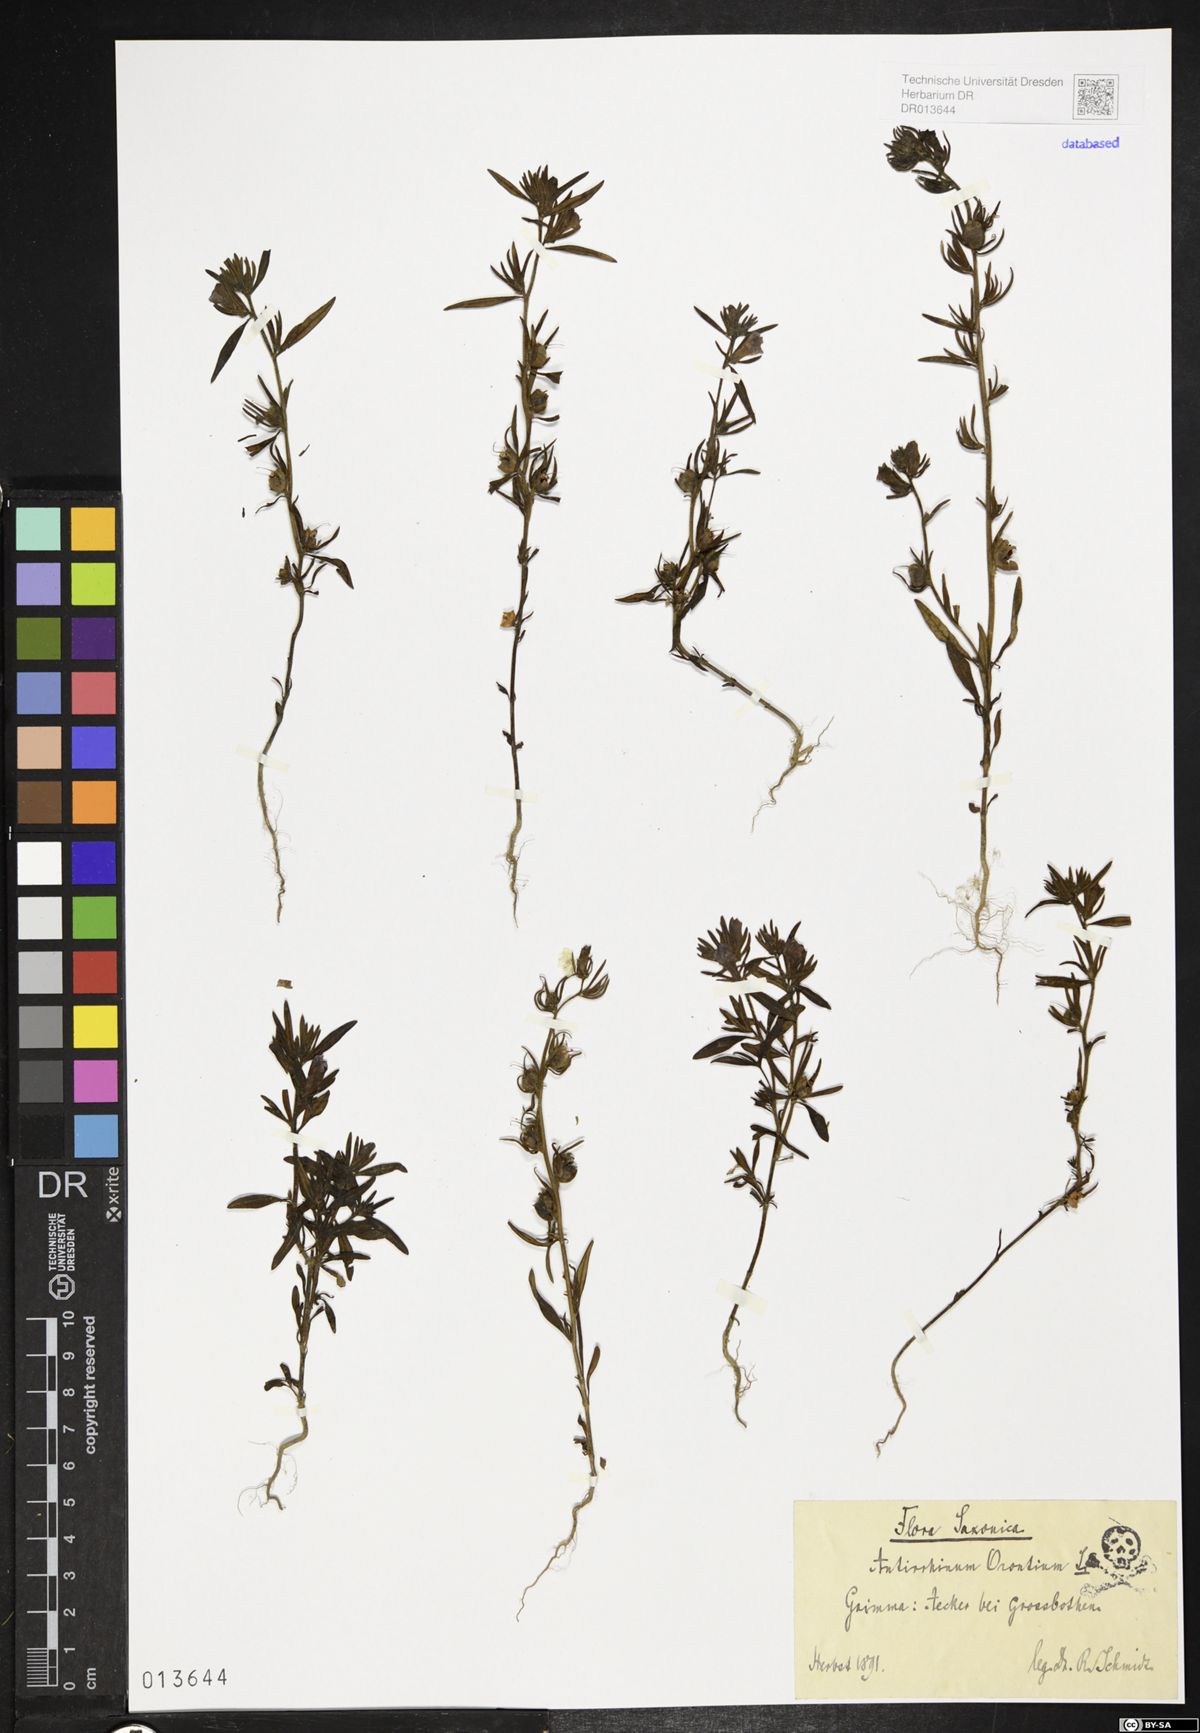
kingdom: Plantae
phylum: Tracheophyta
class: Magnoliopsida
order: Lamiales
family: Plantaginaceae
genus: Misopates
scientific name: Misopates orontium
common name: Weasel's-snout
